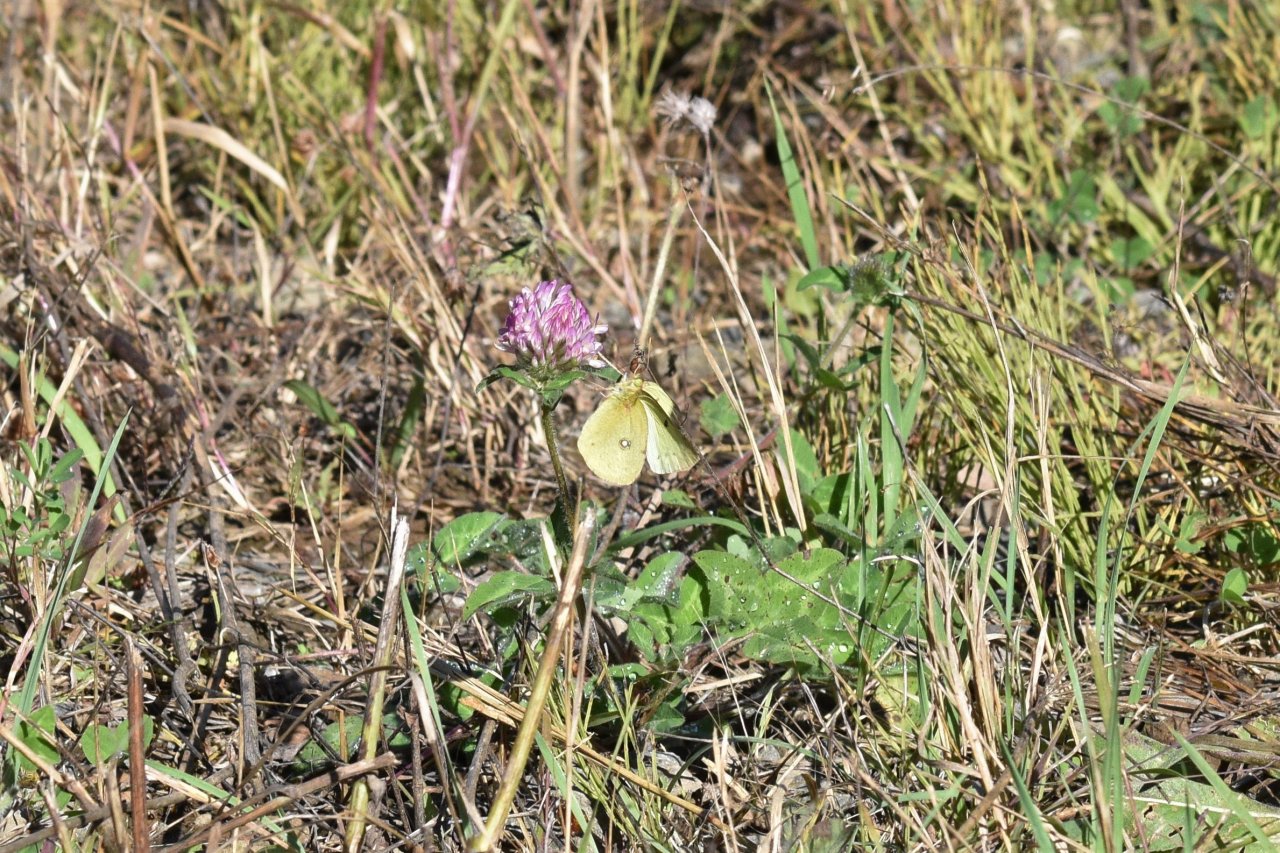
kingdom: Animalia
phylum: Arthropoda
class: Insecta
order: Lepidoptera
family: Pieridae
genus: Colias
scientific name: Colias philodice
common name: Clouded Sulphur
